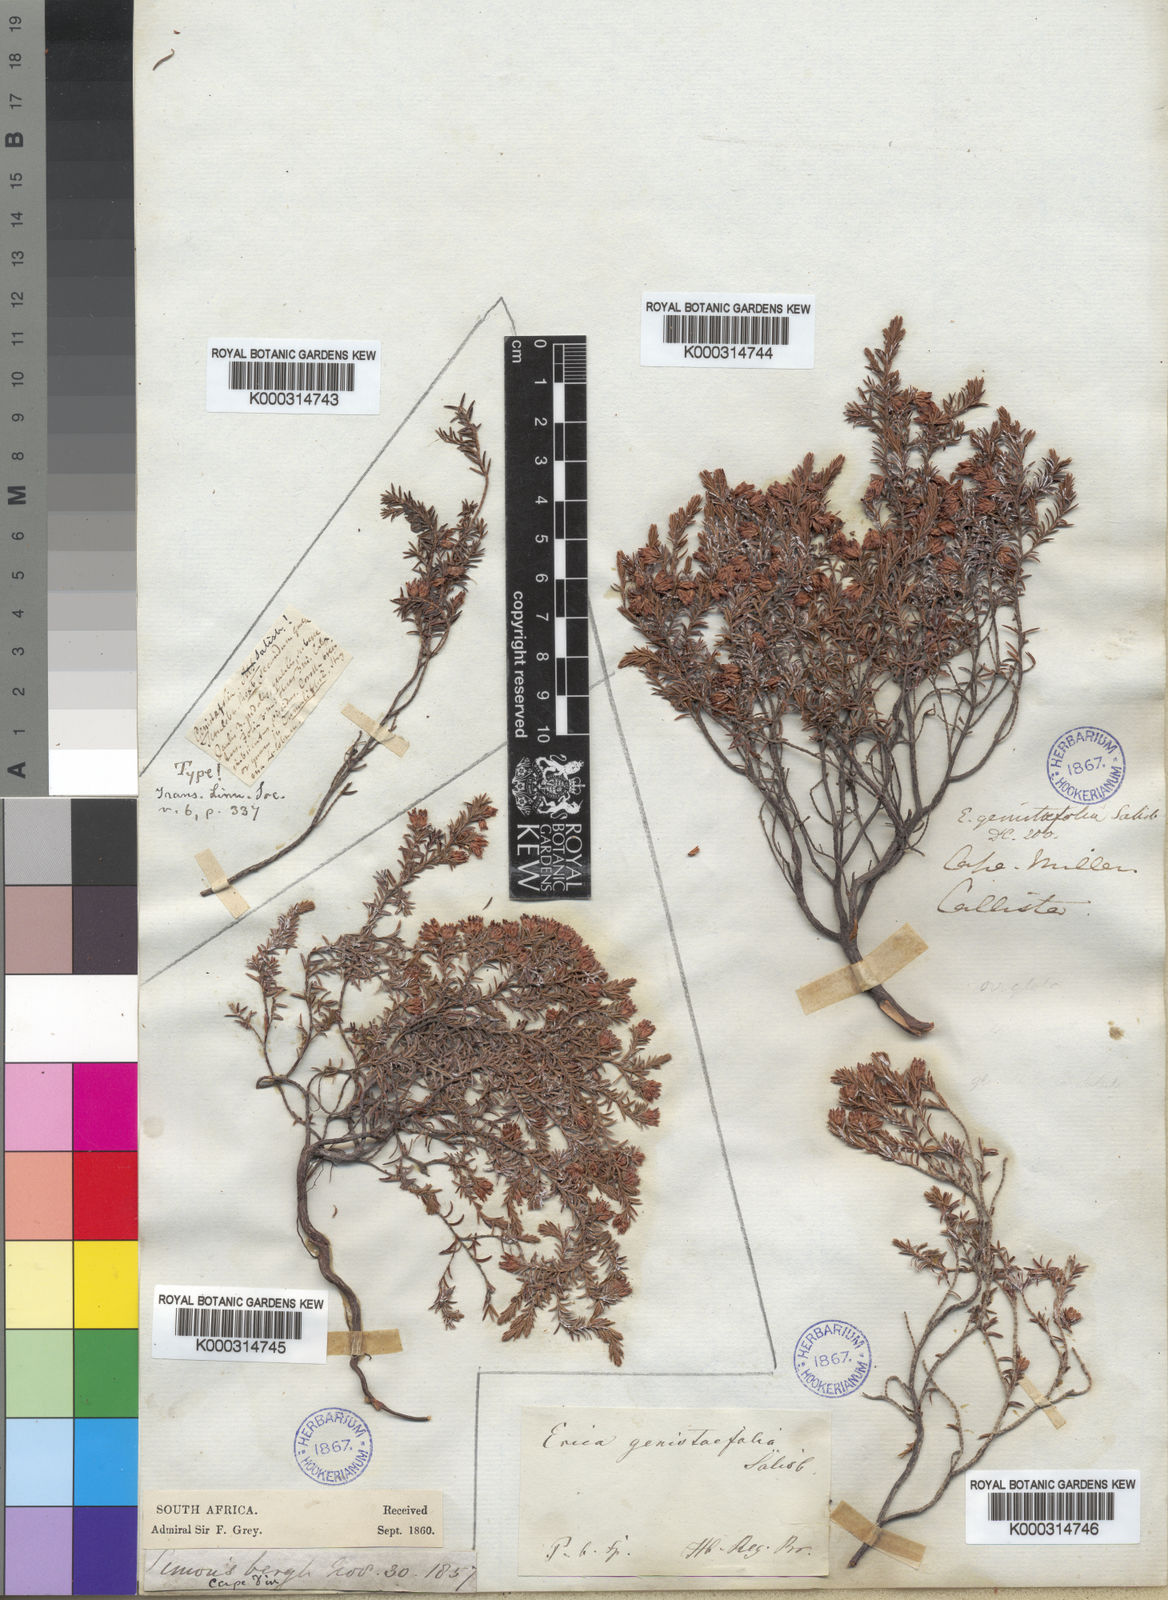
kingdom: Plantae
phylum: Tracheophyta
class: Magnoliopsida
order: Ericales
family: Ericaceae
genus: Erica
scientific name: Erica genistifolia
